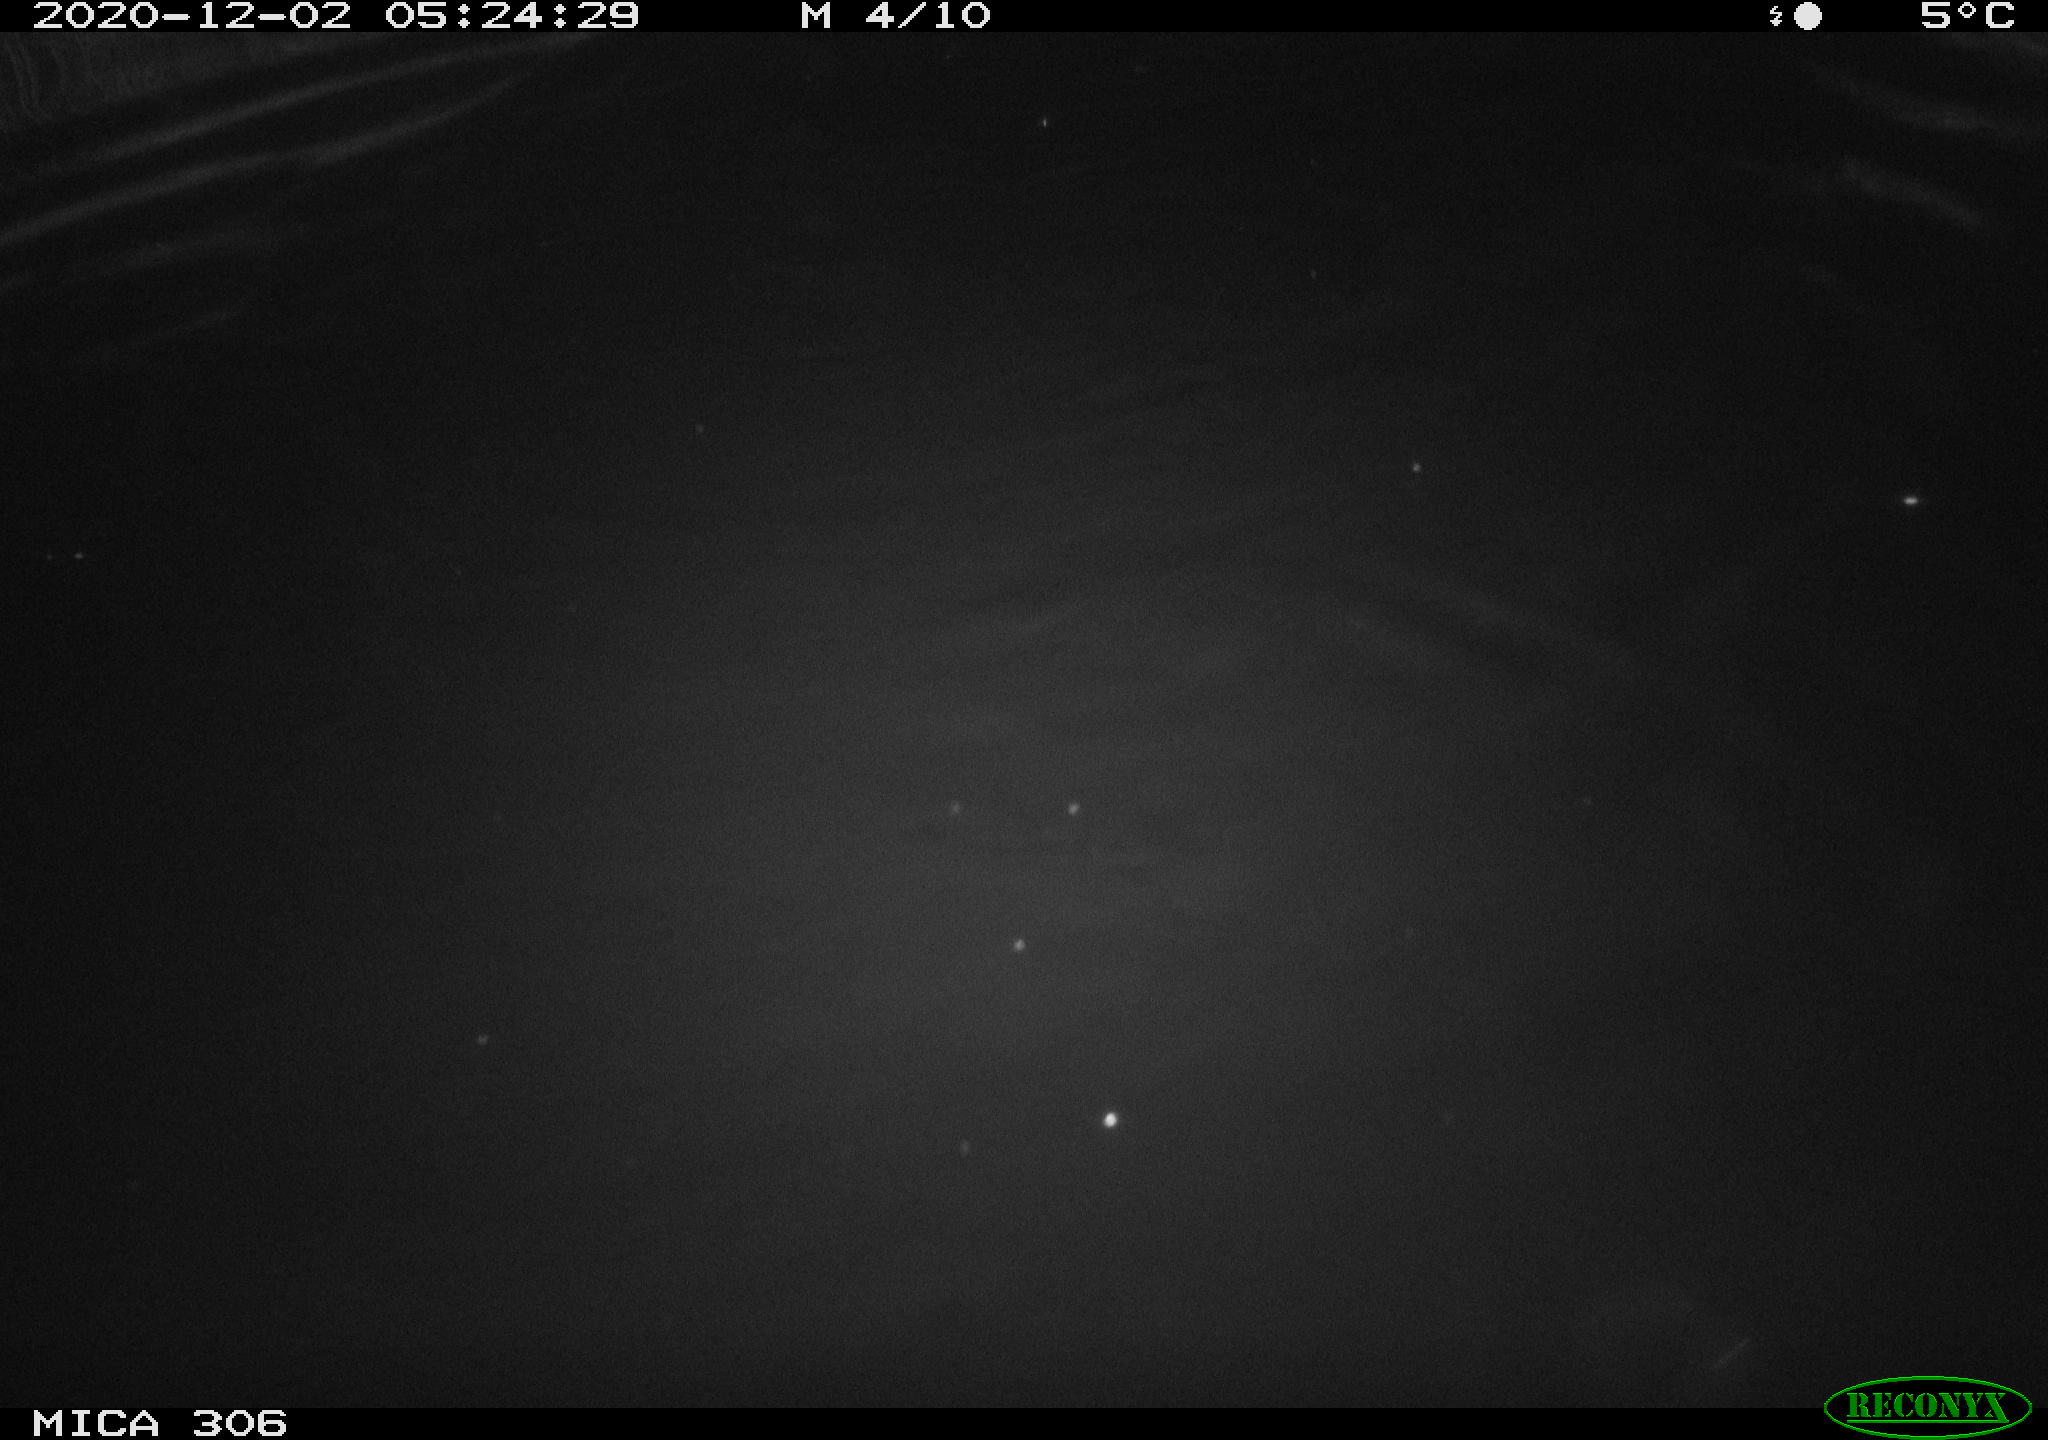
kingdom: Animalia
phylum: Chordata
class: Mammalia
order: Rodentia
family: Cricetidae
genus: Ondatra
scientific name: Ondatra zibethicus
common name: Muskrat
